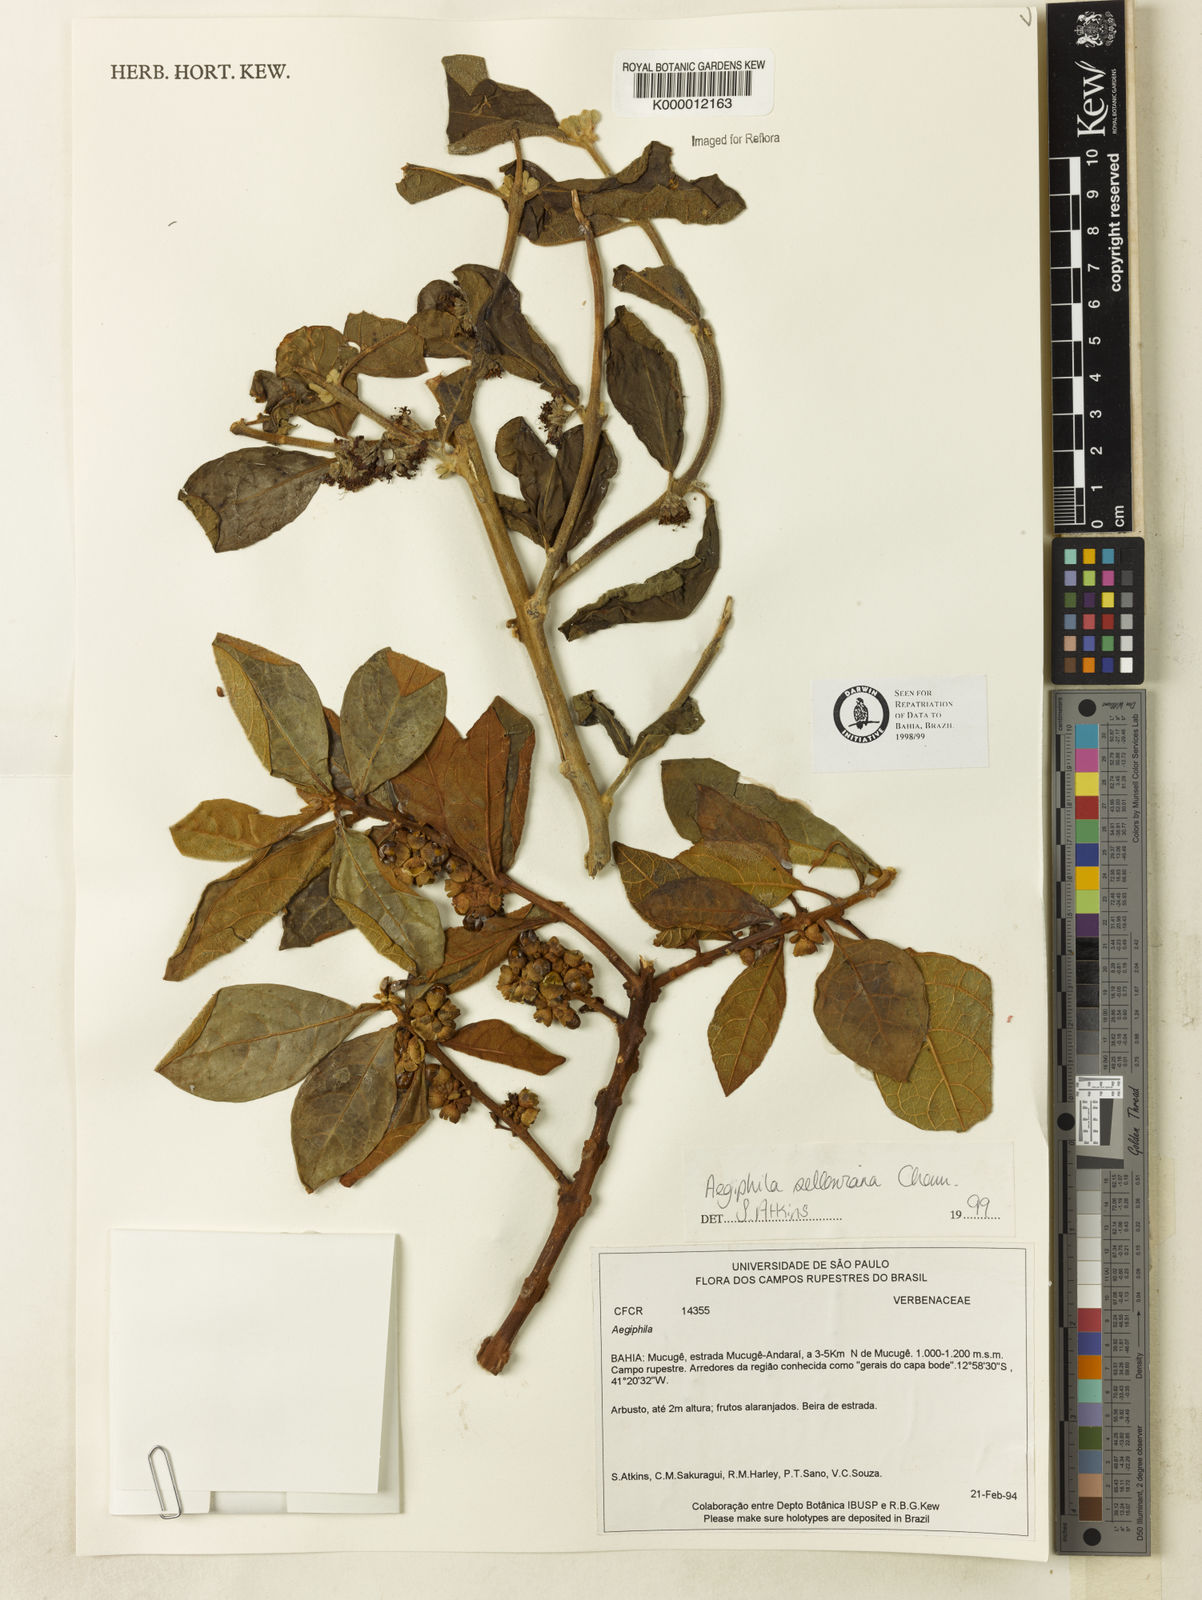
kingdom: Plantae
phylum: Tracheophyta
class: Magnoliopsida
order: Lamiales
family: Lamiaceae
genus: Aegiphila
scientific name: Aegiphila verticillata
